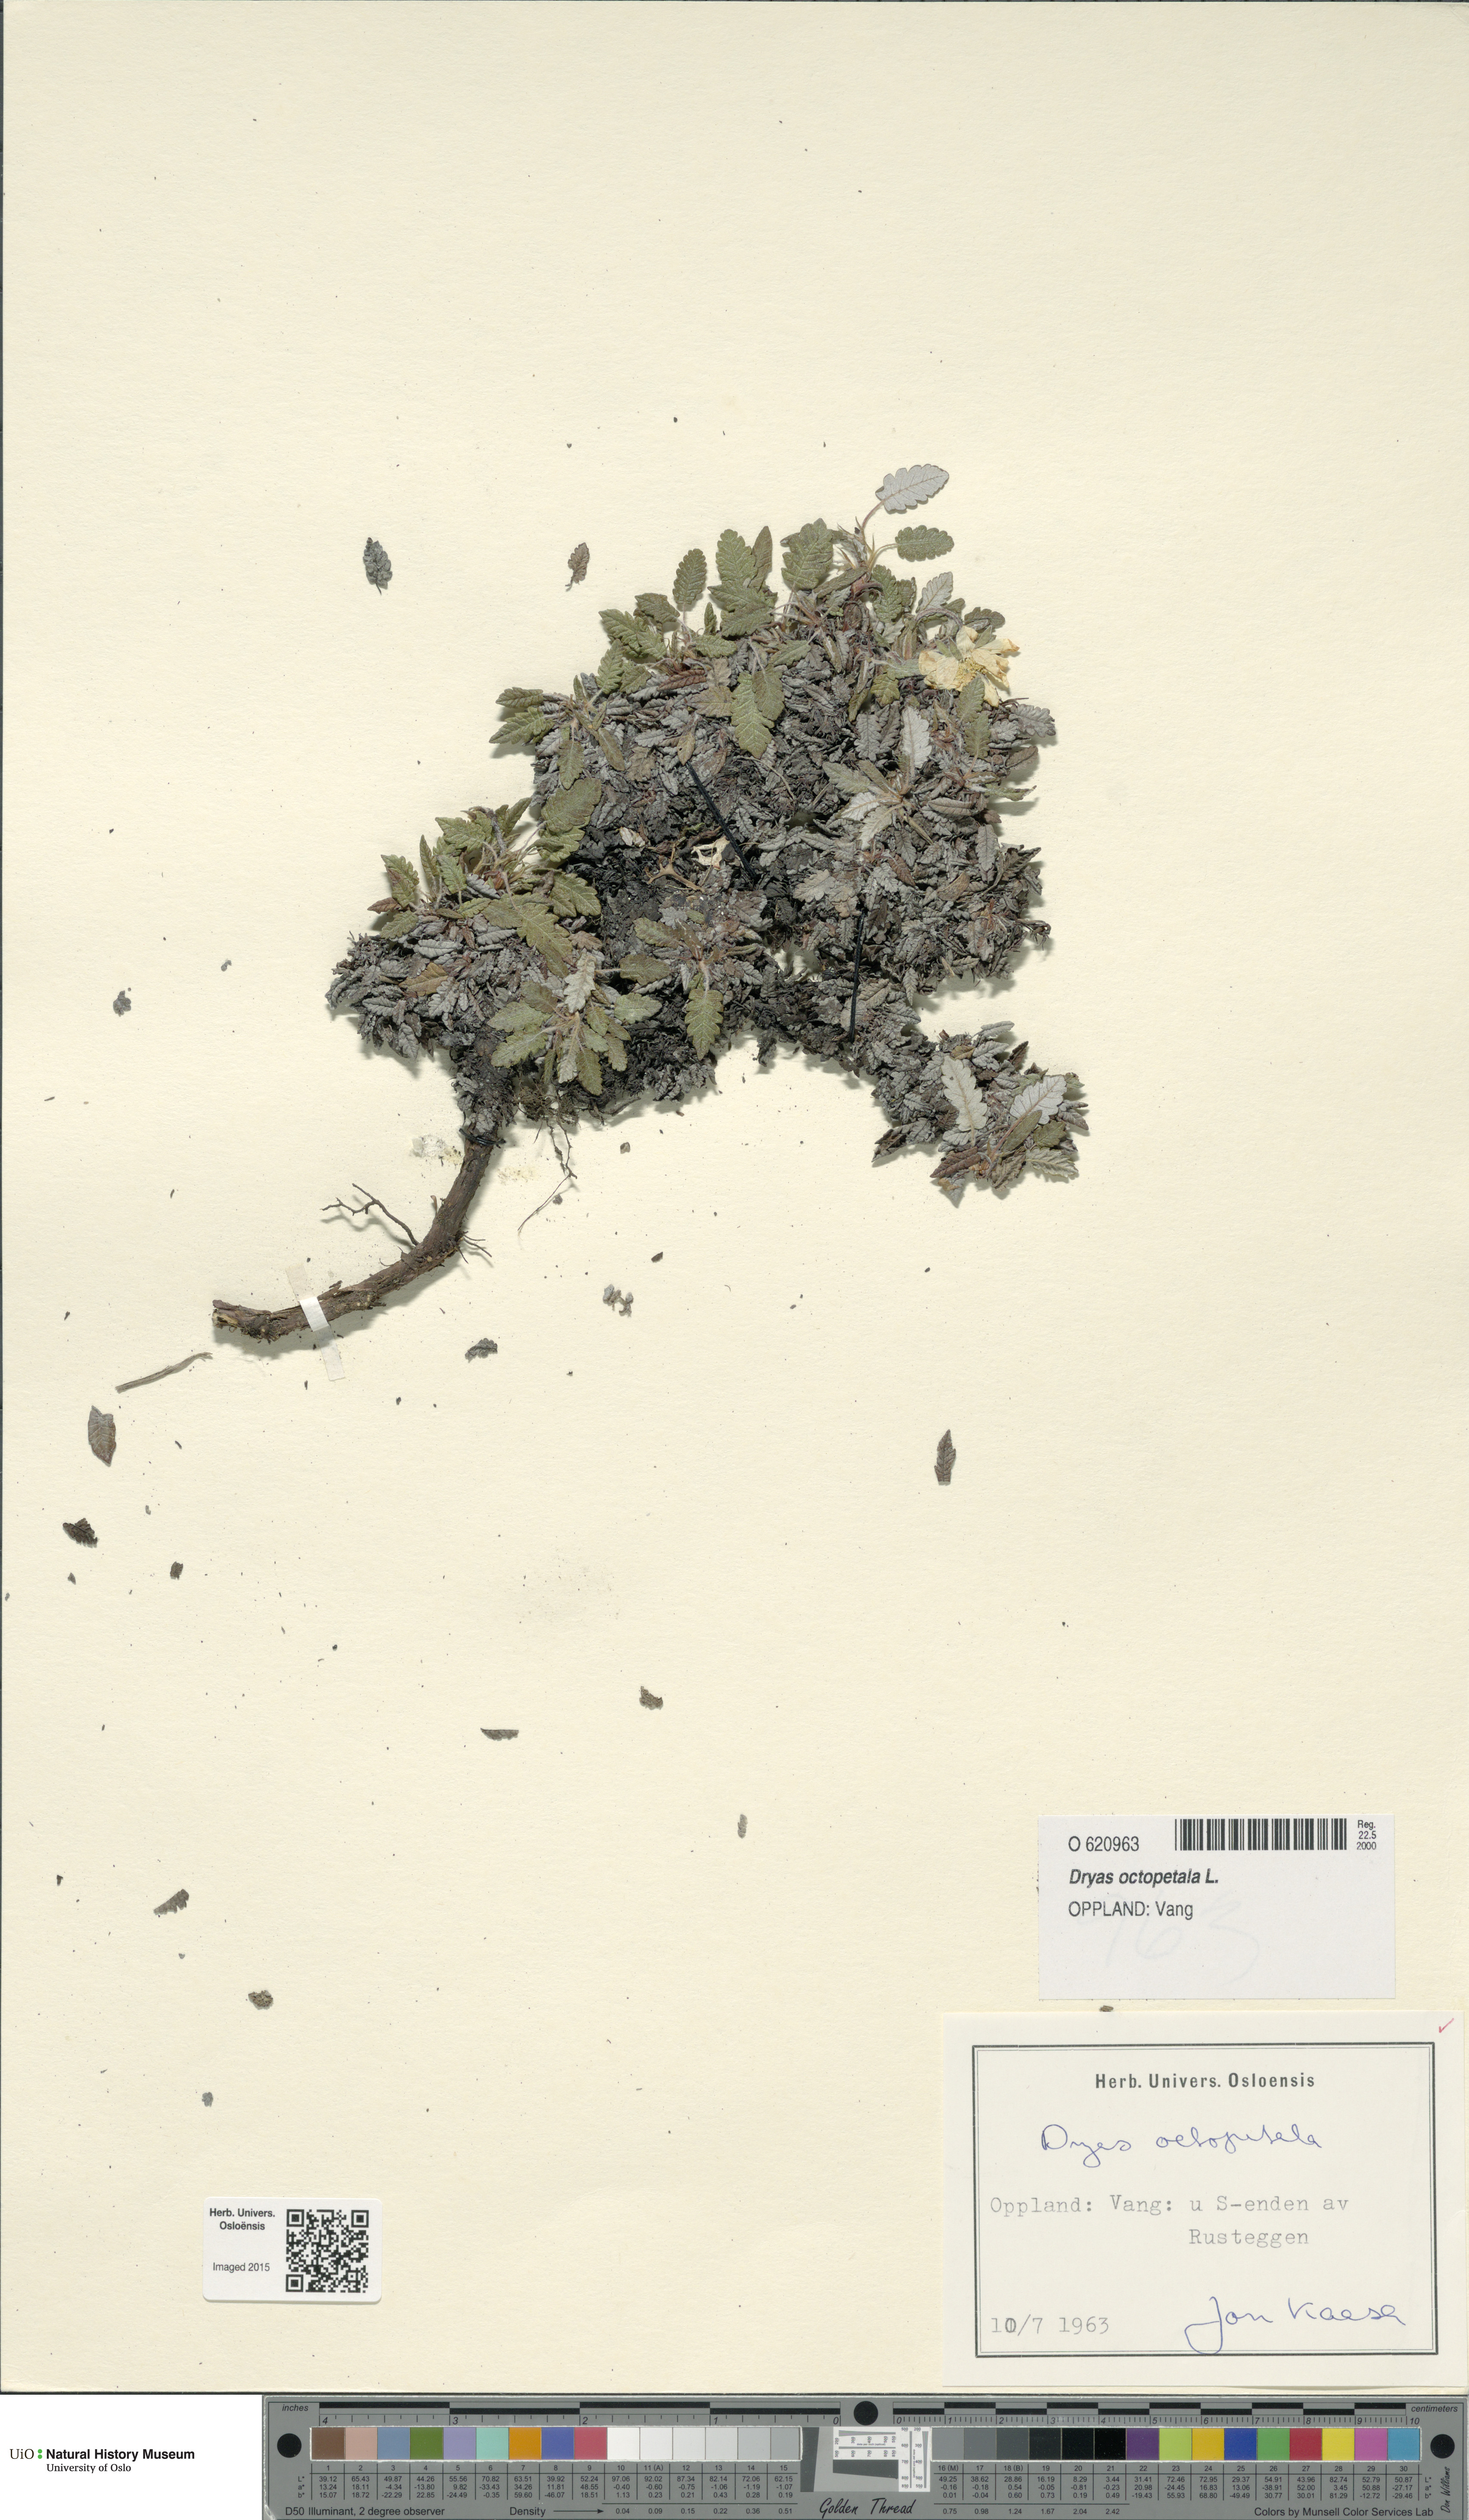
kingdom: Plantae
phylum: Tracheophyta
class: Magnoliopsida
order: Rosales
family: Rosaceae
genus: Dryas
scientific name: Dryas octopetala
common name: Eight-petal mountain-avens
